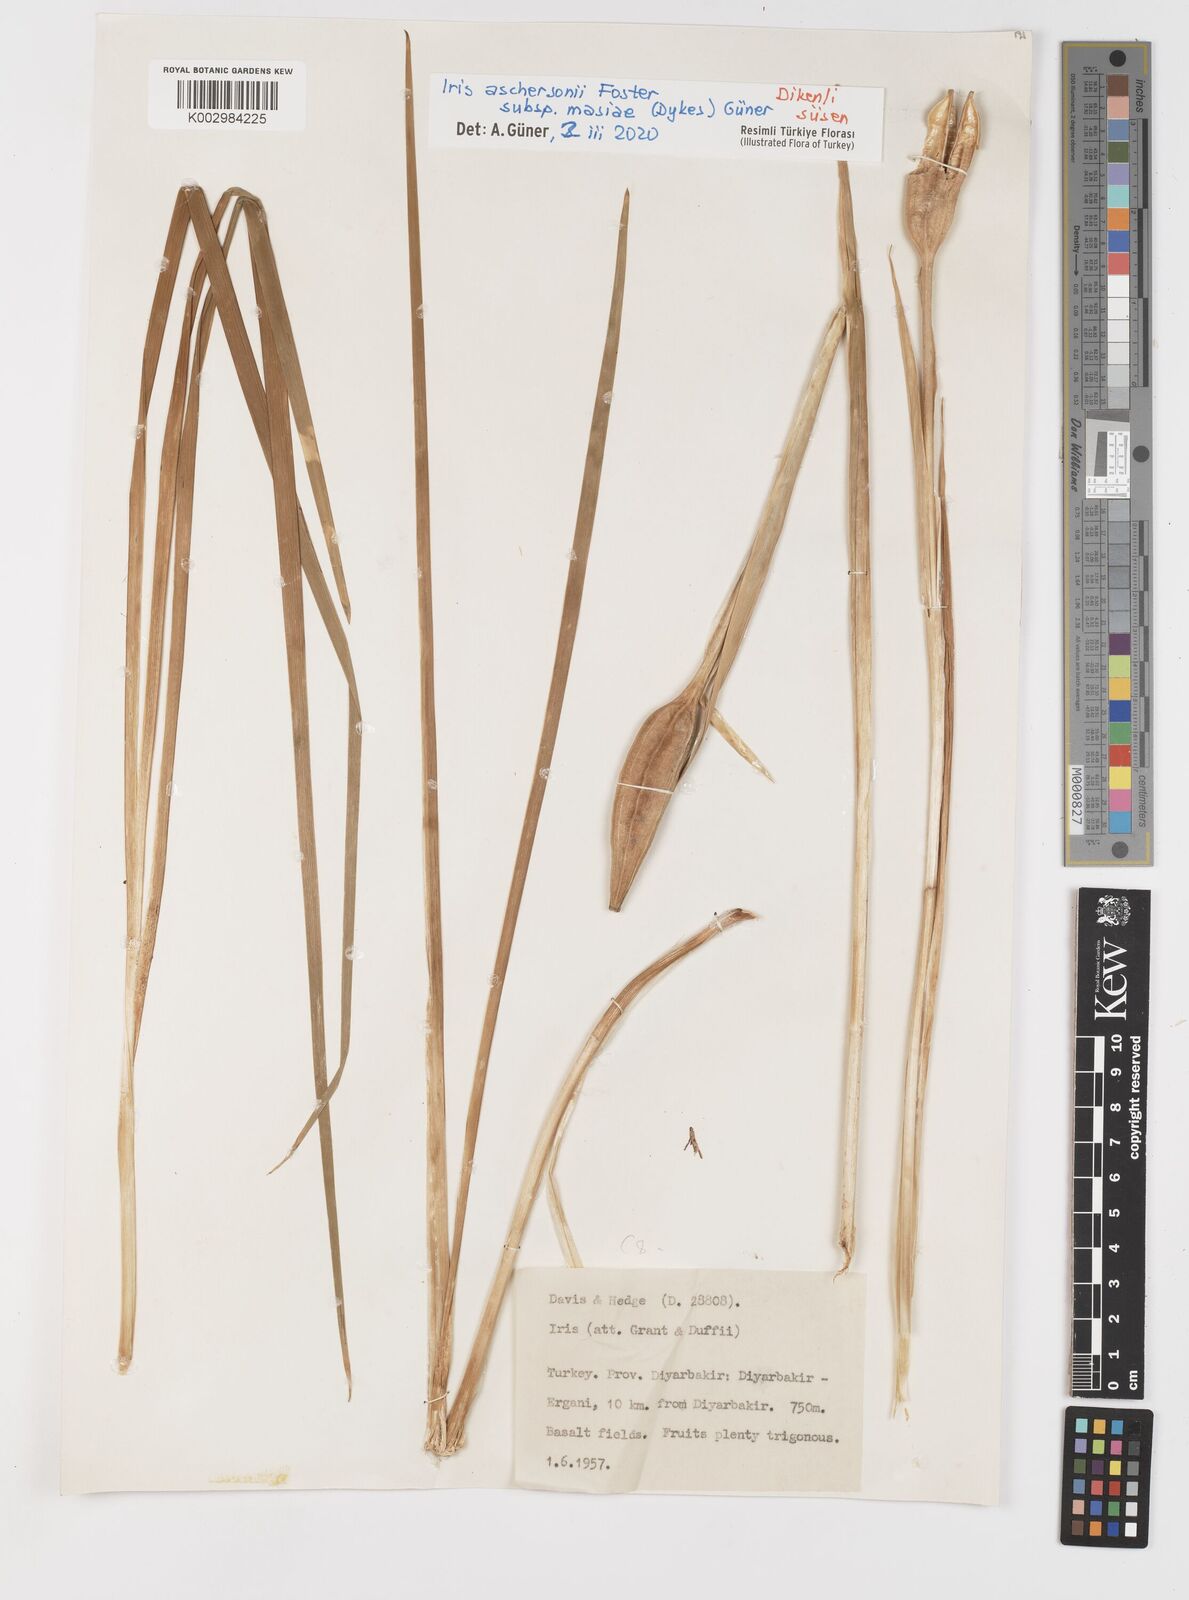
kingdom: Plantae
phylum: Tracheophyta
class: Liliopsida
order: Asparagales
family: Iridaceae
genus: Iris
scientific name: Iris grant-duffii
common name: Grant duff's iris
